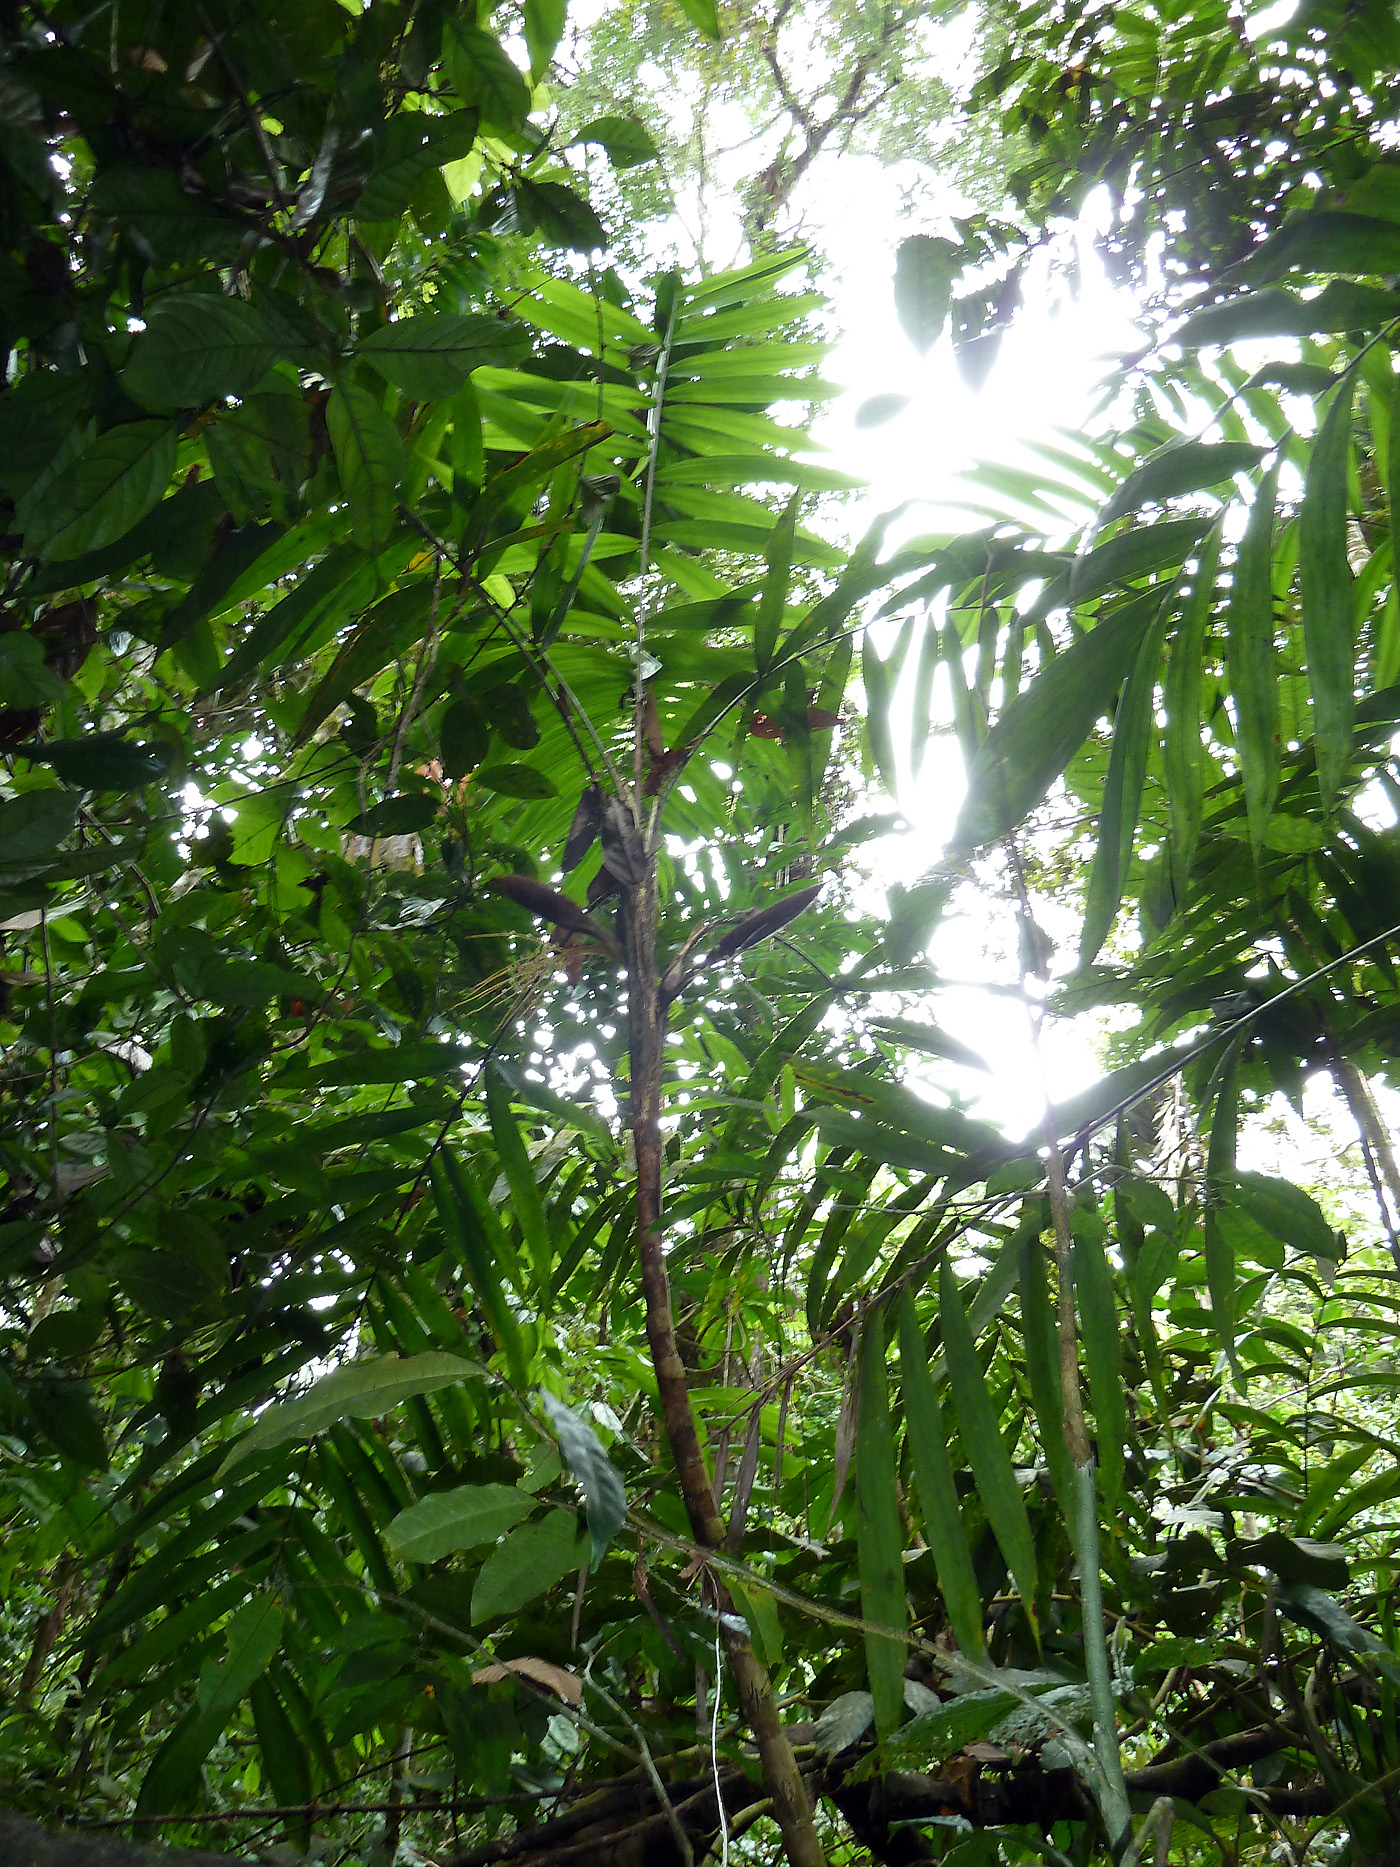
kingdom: Plantae
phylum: Tracheophyta
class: Liliopsida
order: Arecales
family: Arecaceae
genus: Bactris
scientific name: Bactris corossilla
